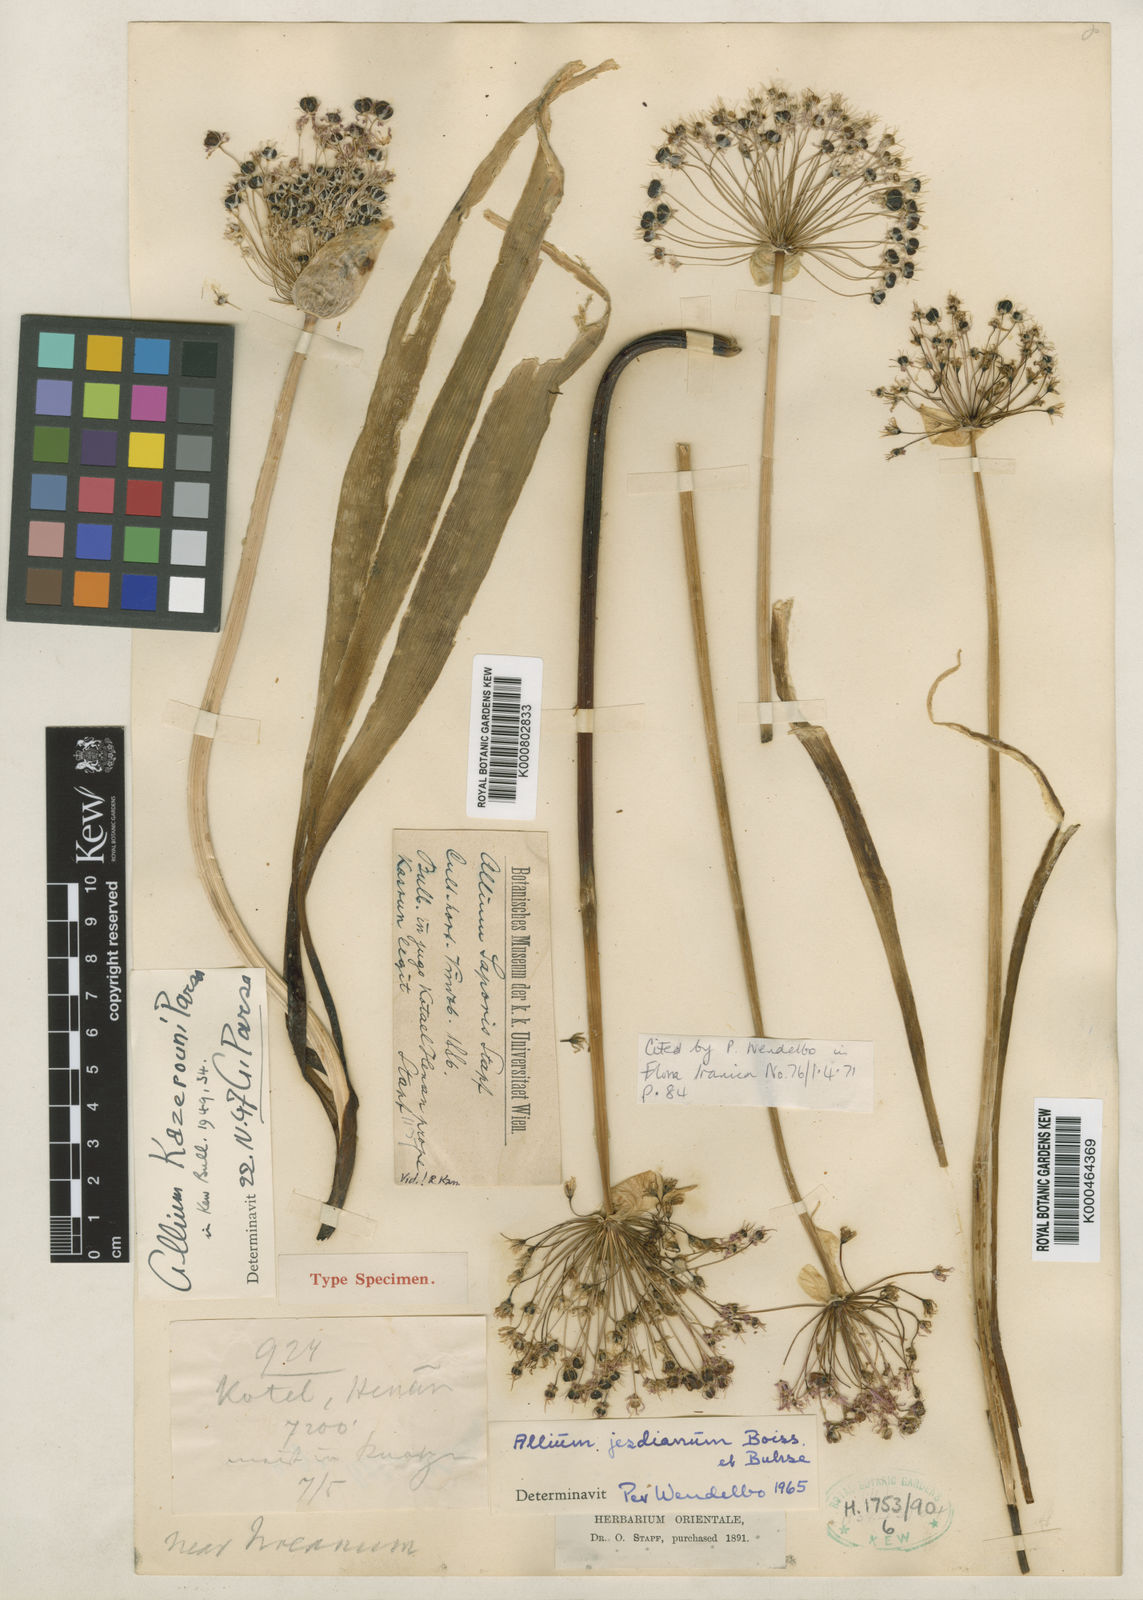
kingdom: Plantae
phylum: Tracheophyta
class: Liliopsida
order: Asparagales
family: Amaryllidaceae
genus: Allium
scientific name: Allium jesdianum
